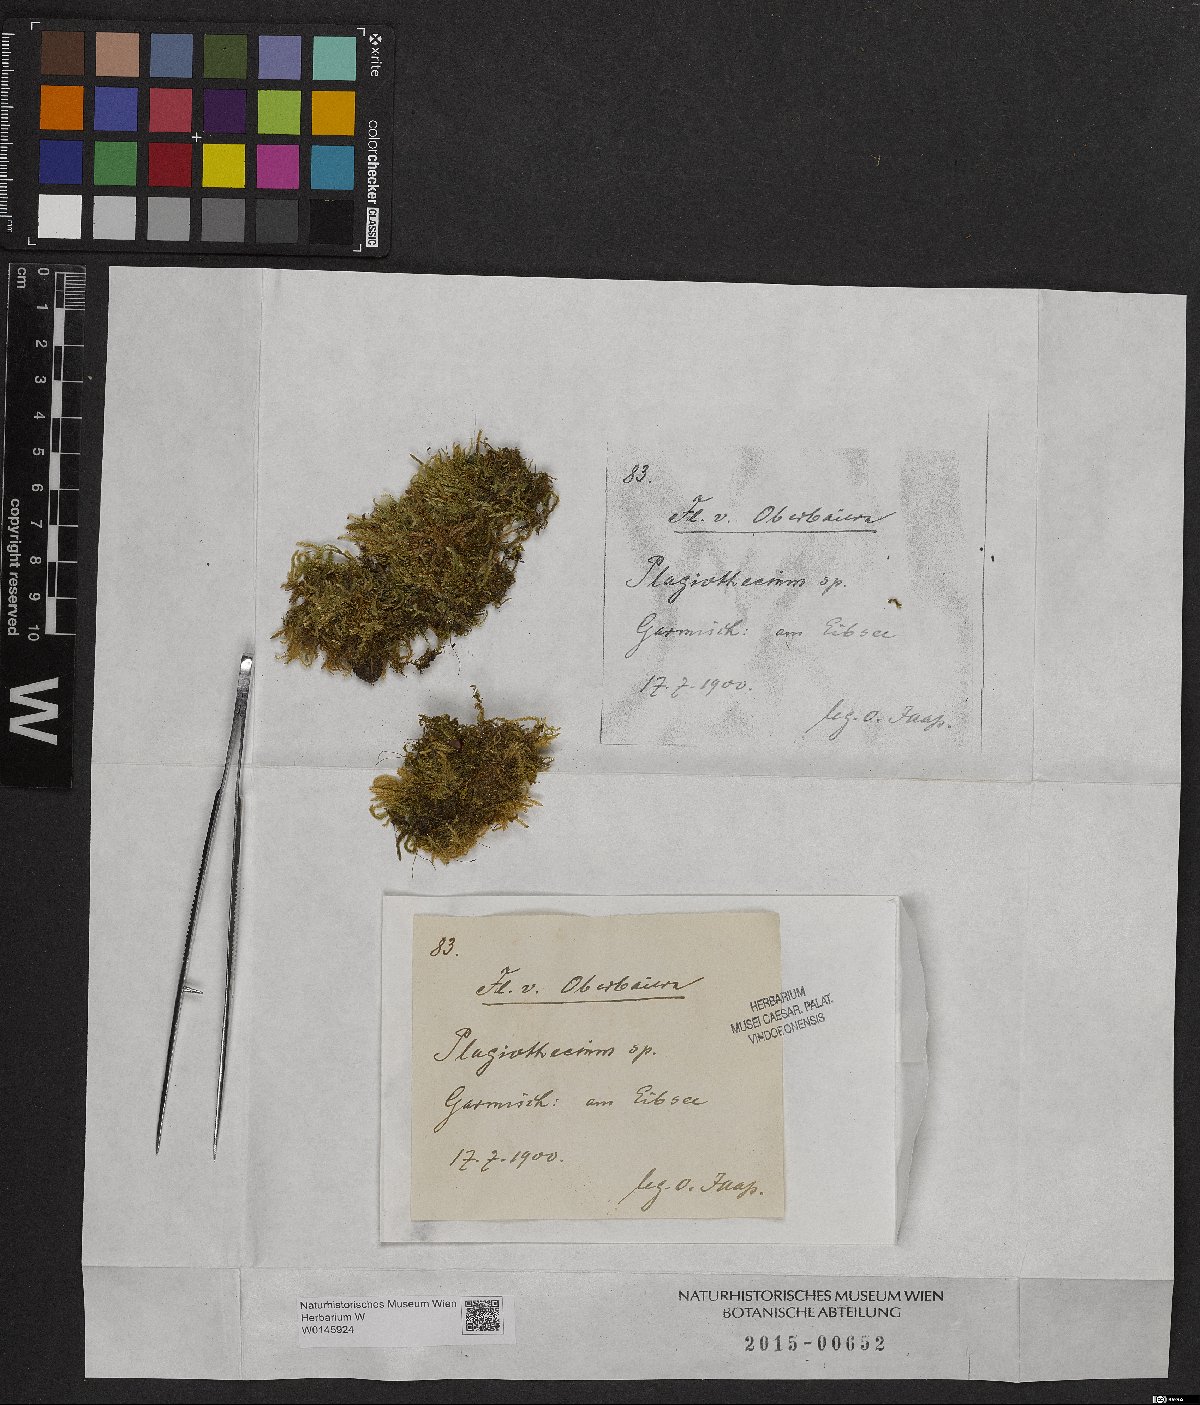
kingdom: Plantae
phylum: Bryophyta
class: Bryopsida
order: Hypnales
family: Plagiotheciaceae
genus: Plagiothecium
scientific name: Plagiothecium
